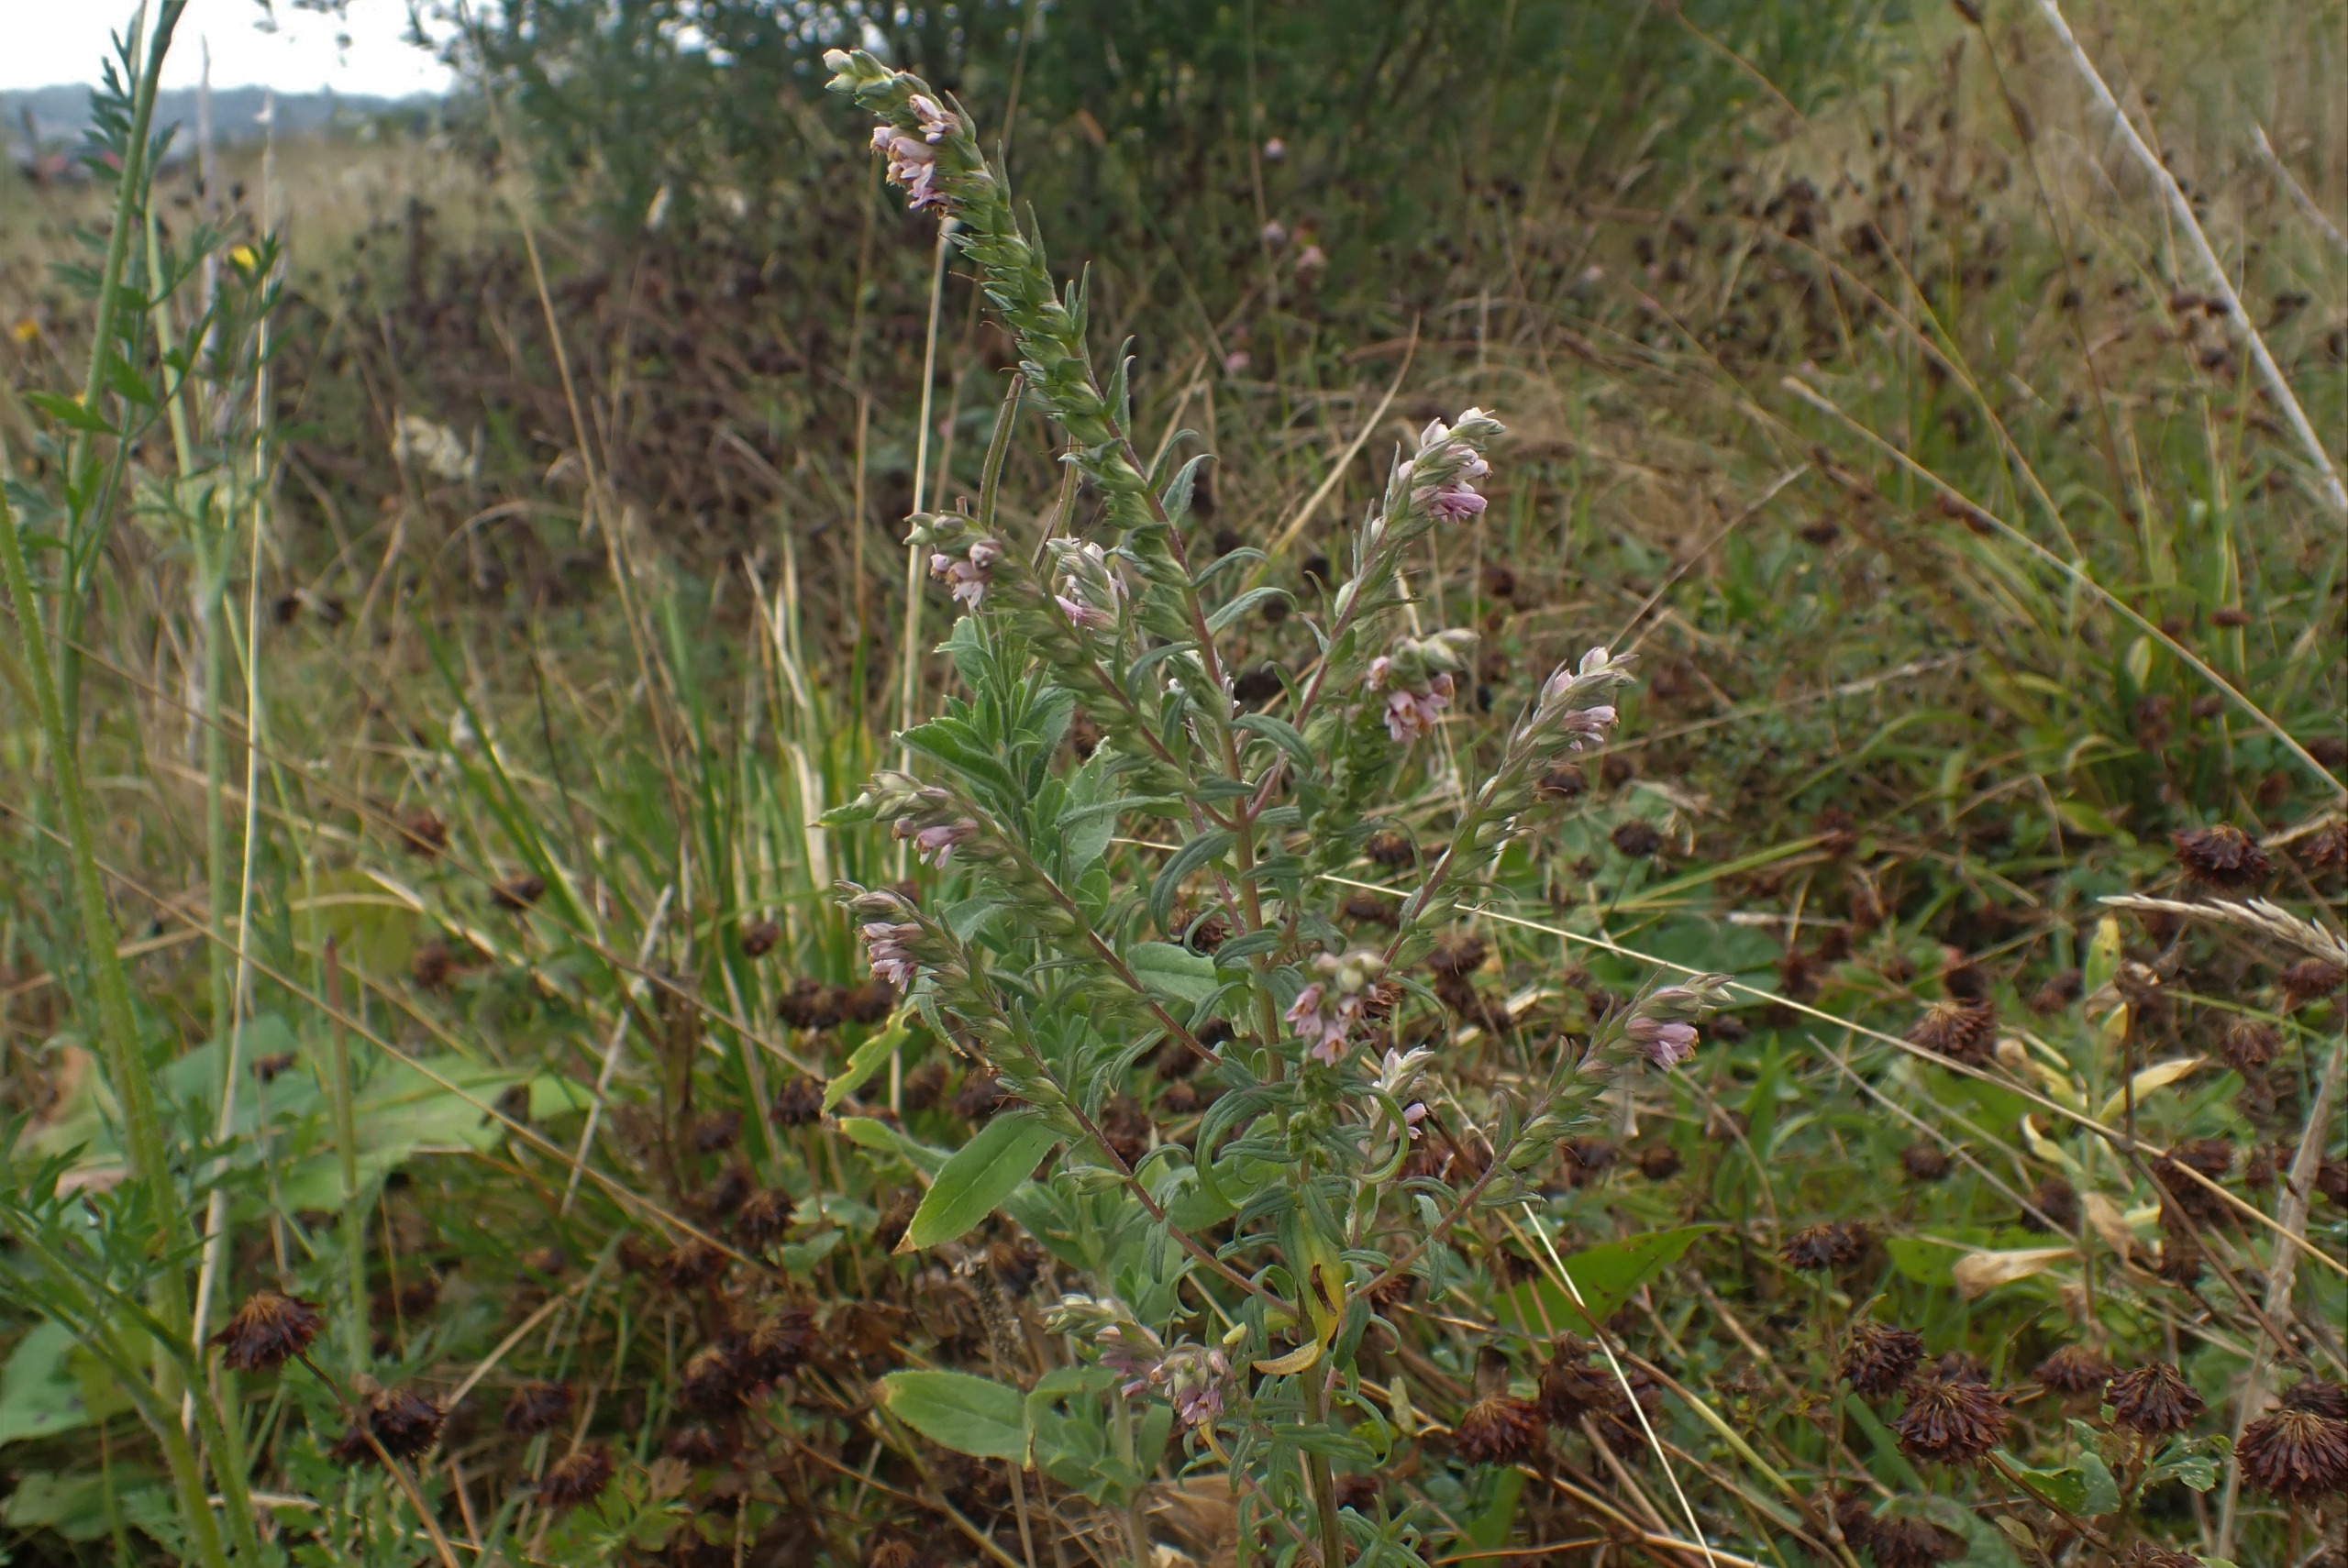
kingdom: Plantae
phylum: Tracheophyta
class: Magnoliopsida
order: Lamiales
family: Orobanchaceae
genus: Odontites
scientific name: Odontites vulgaris
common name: Høst-rødtop
